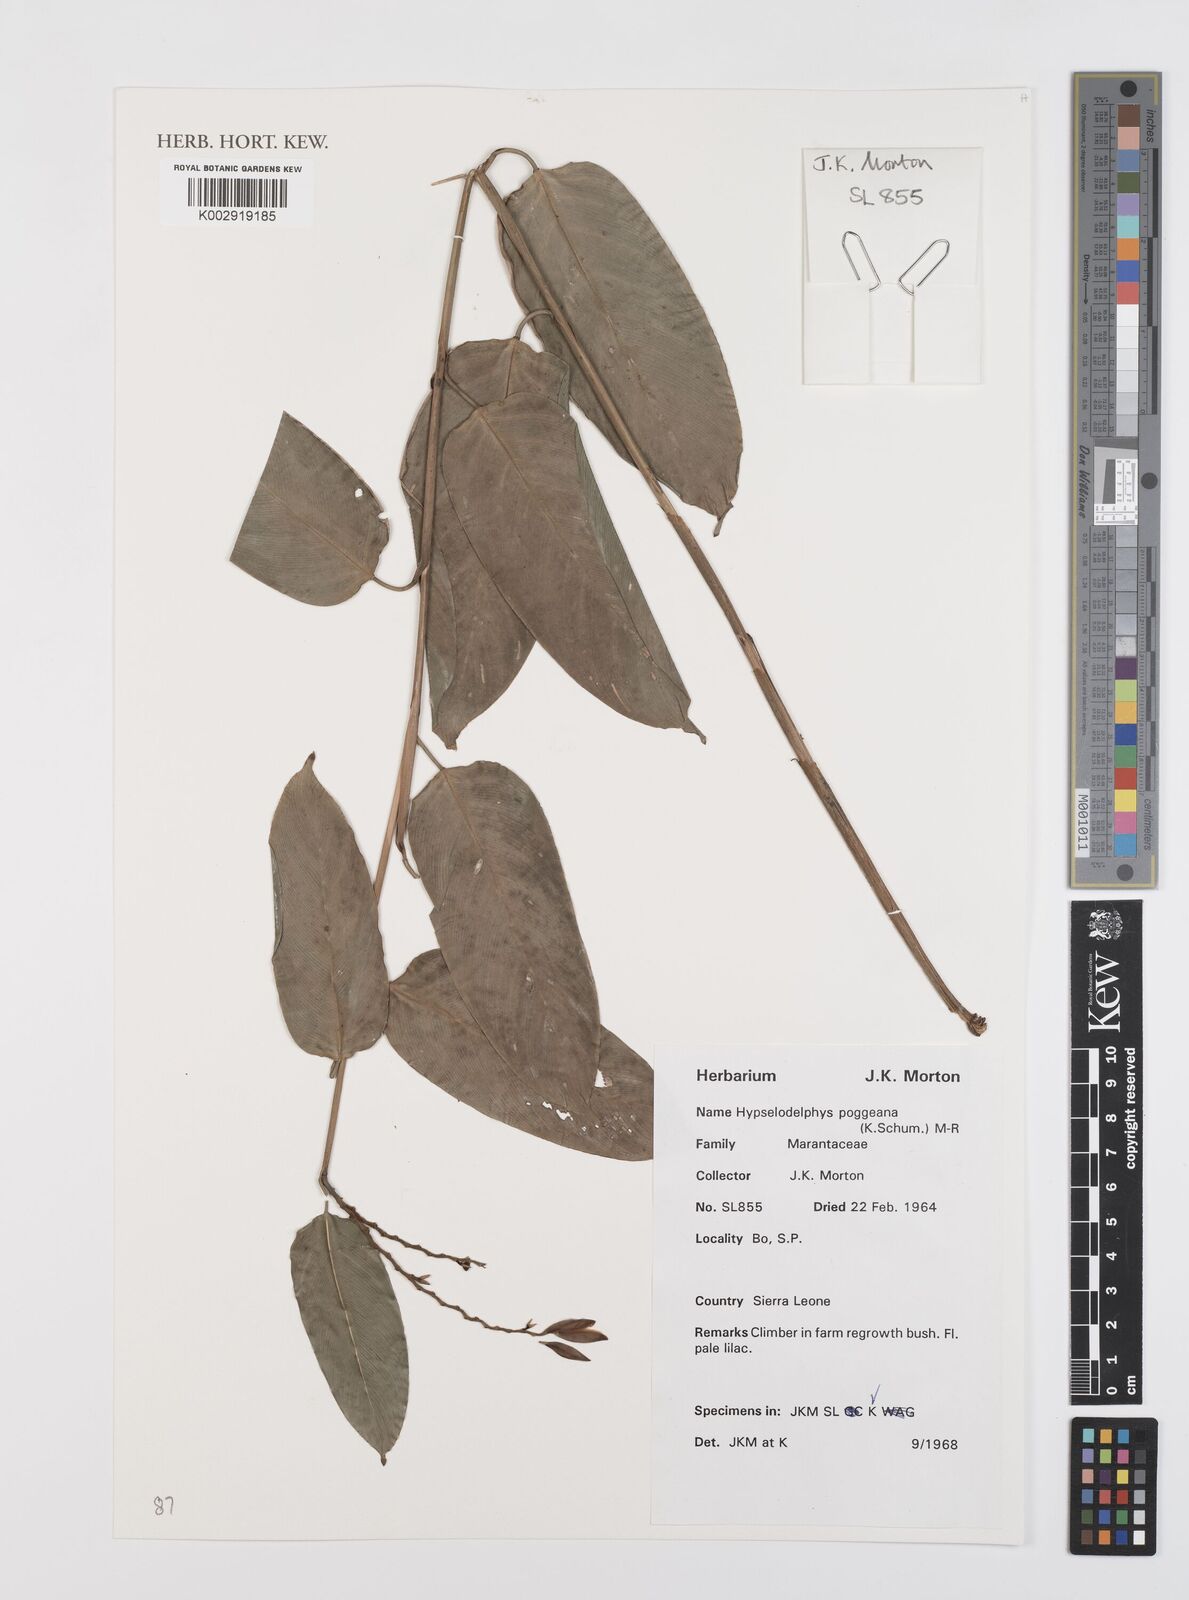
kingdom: Plantae
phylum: Tracheophyta
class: Liliopsida
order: Zingiberales
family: Marantaceae
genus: Hypselodelphys
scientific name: Hypselodelphys poggeana
